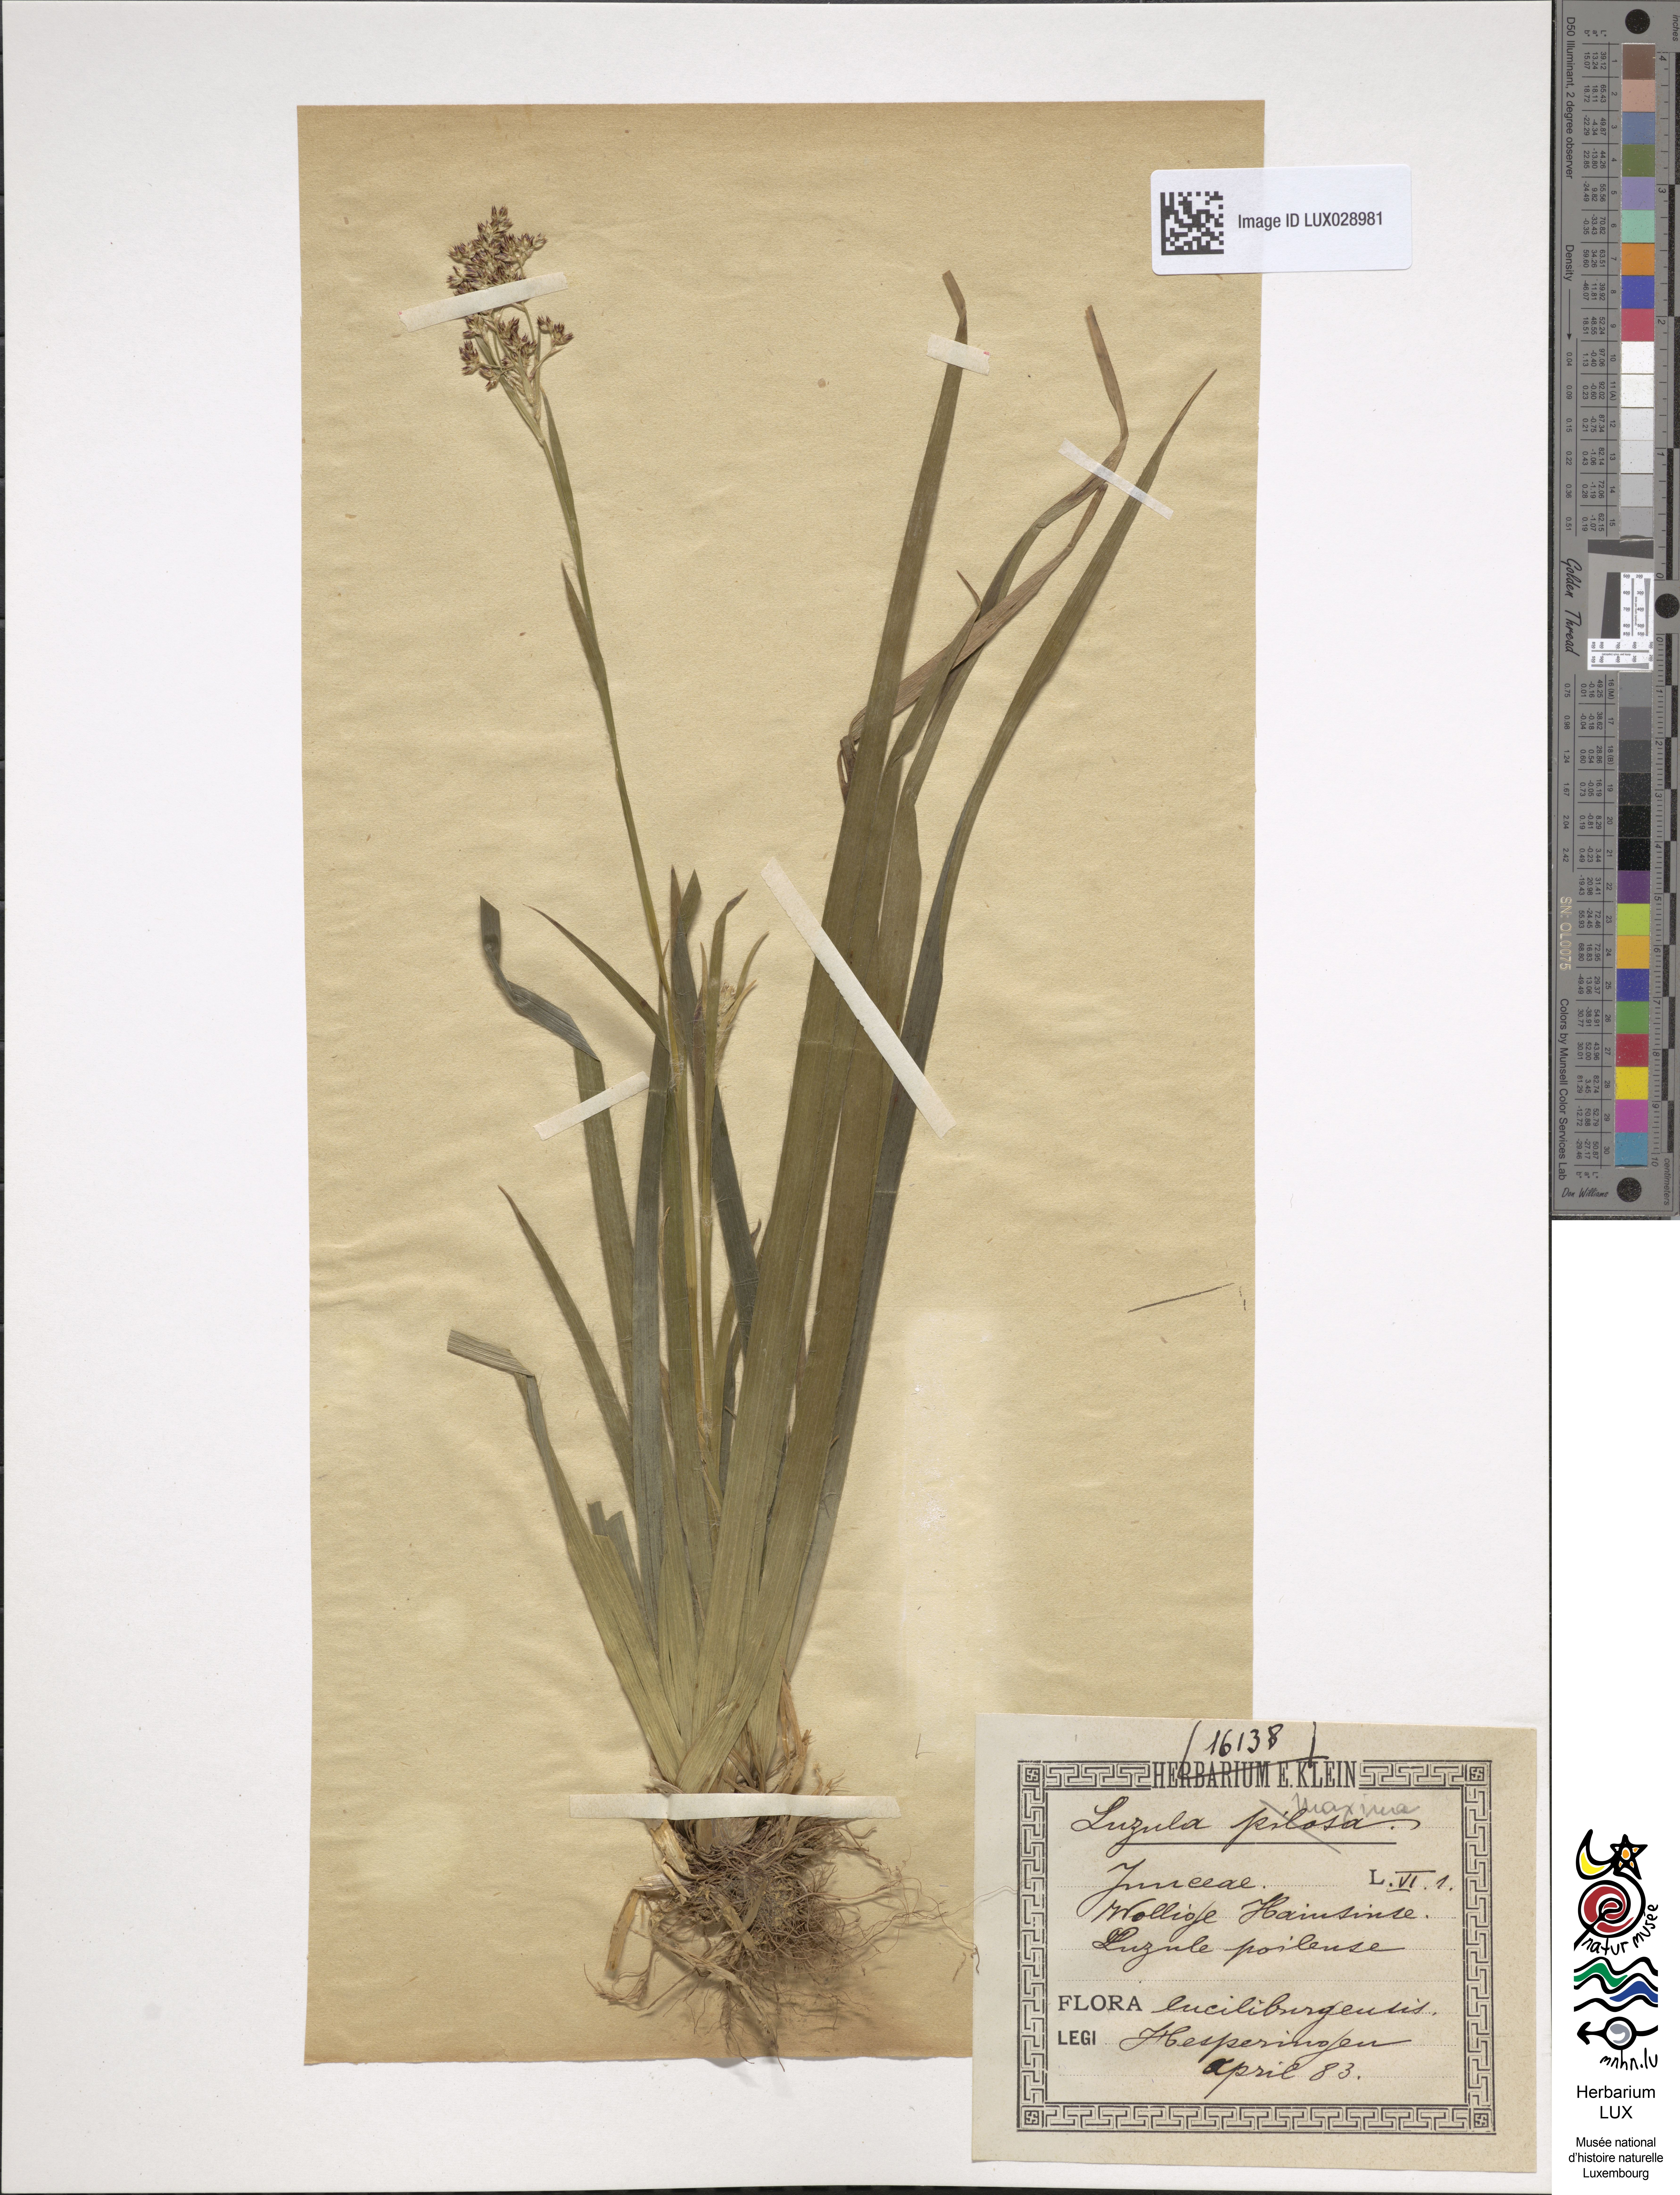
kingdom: Plantae
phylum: Tracheophyta
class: Liliopsida
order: Poales
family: Juncaceae
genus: Luzula
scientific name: Luzula sylvatica
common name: Great wood-rush
